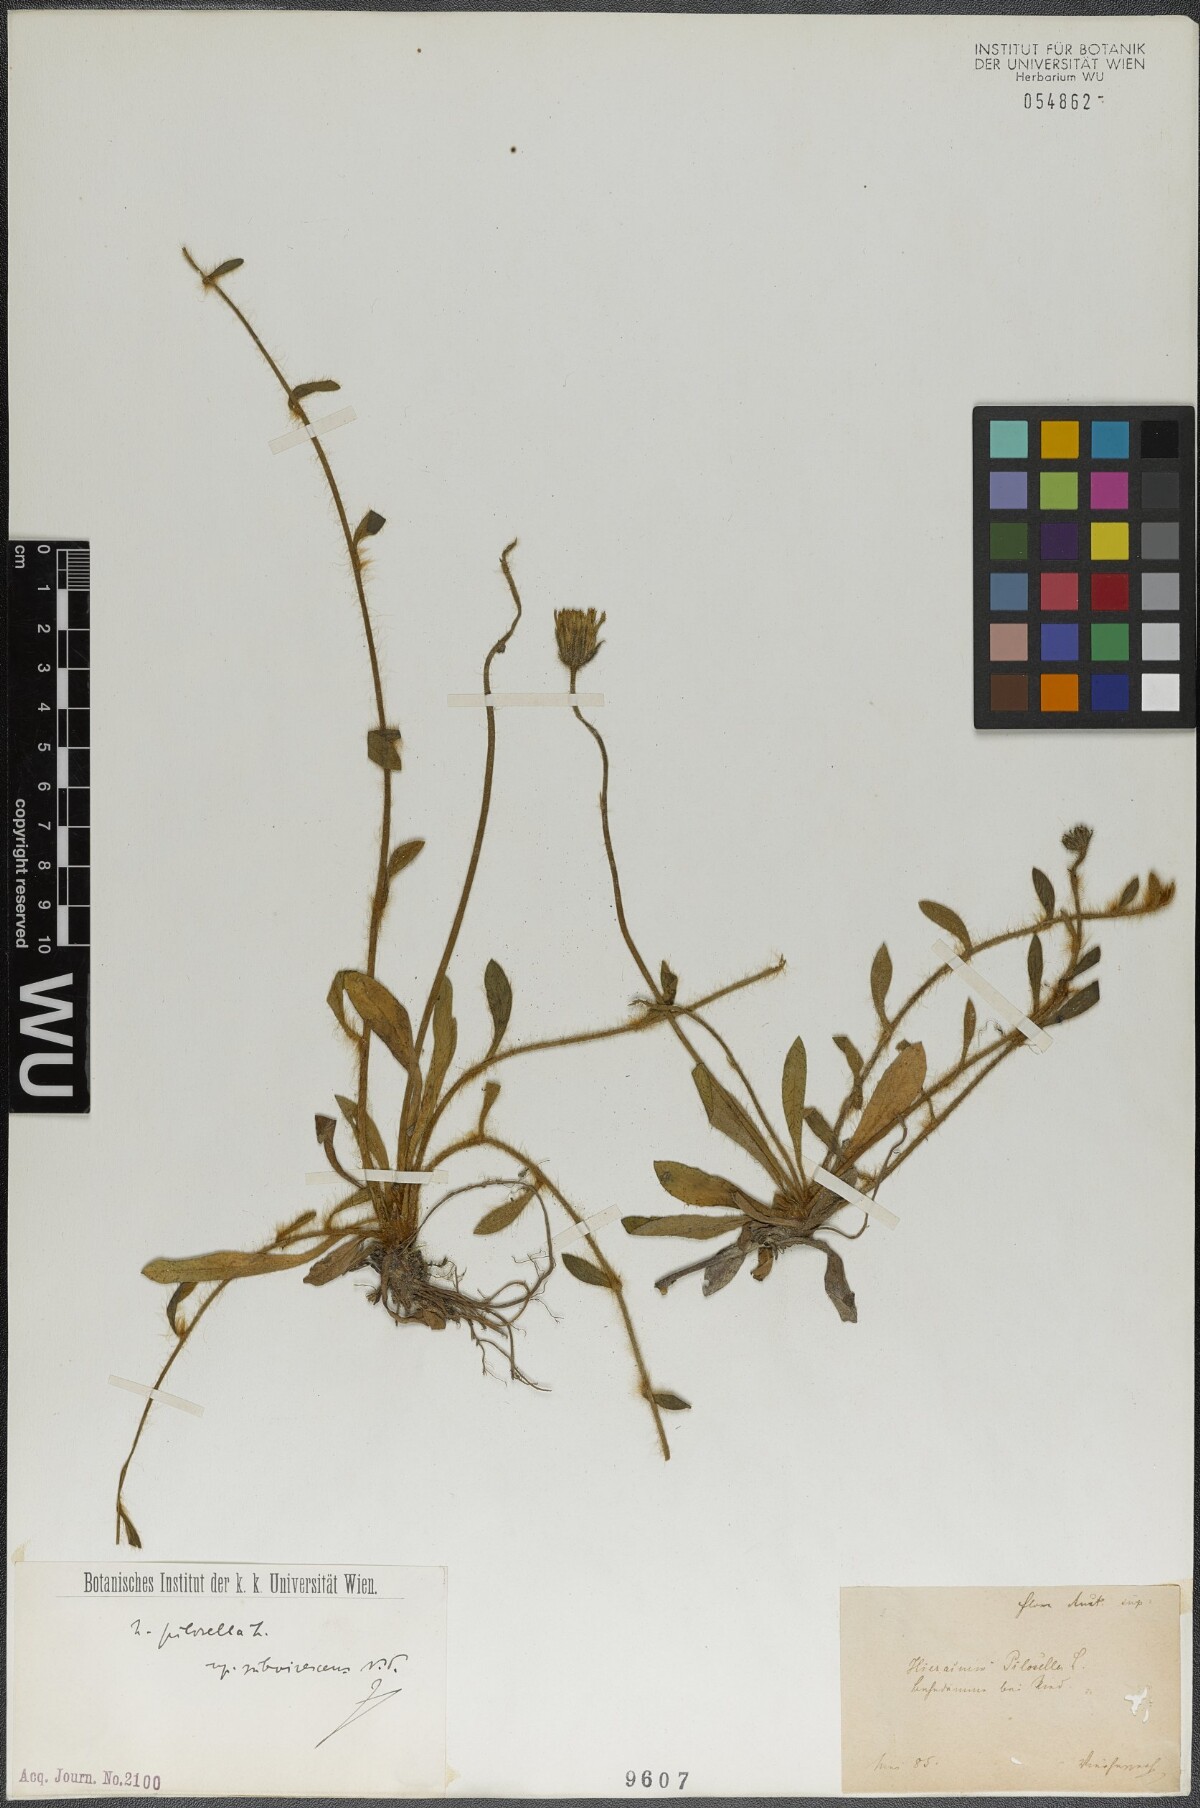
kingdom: Plantae
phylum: Tracheophyta
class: Magnoliopsida
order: Asterales
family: Asteraceae
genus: Pilosella
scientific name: Pilosella officinarum
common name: Mouse-ear hawkweed
